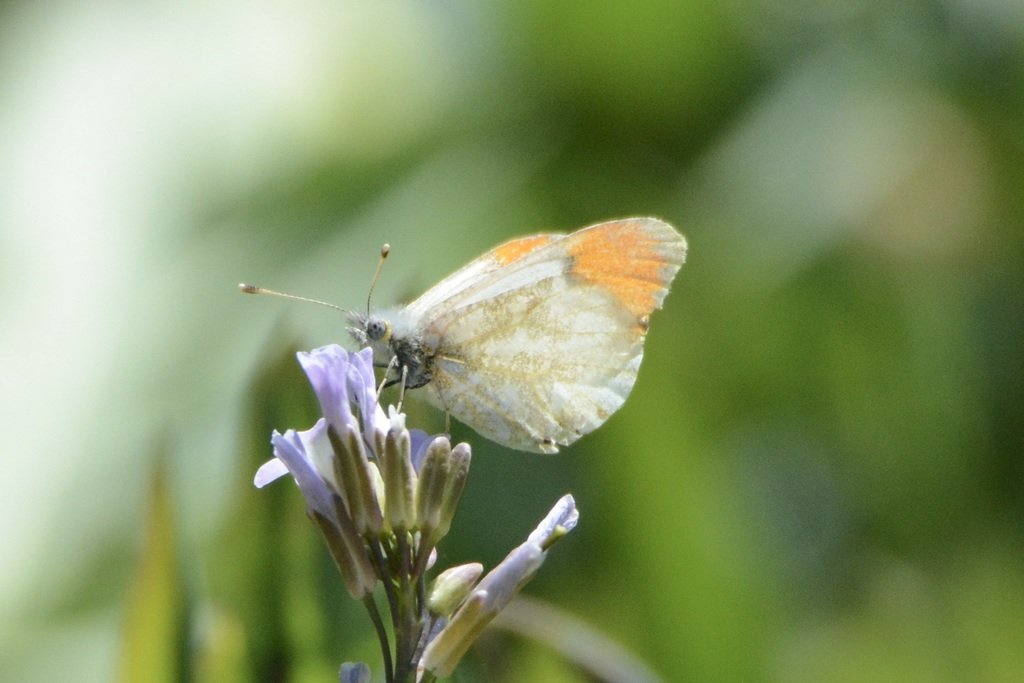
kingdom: Animalia
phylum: Arthropoda
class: Insecta
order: Lepidoptera
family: Pieridae
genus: Anthocharis
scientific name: Anthocharis sara
